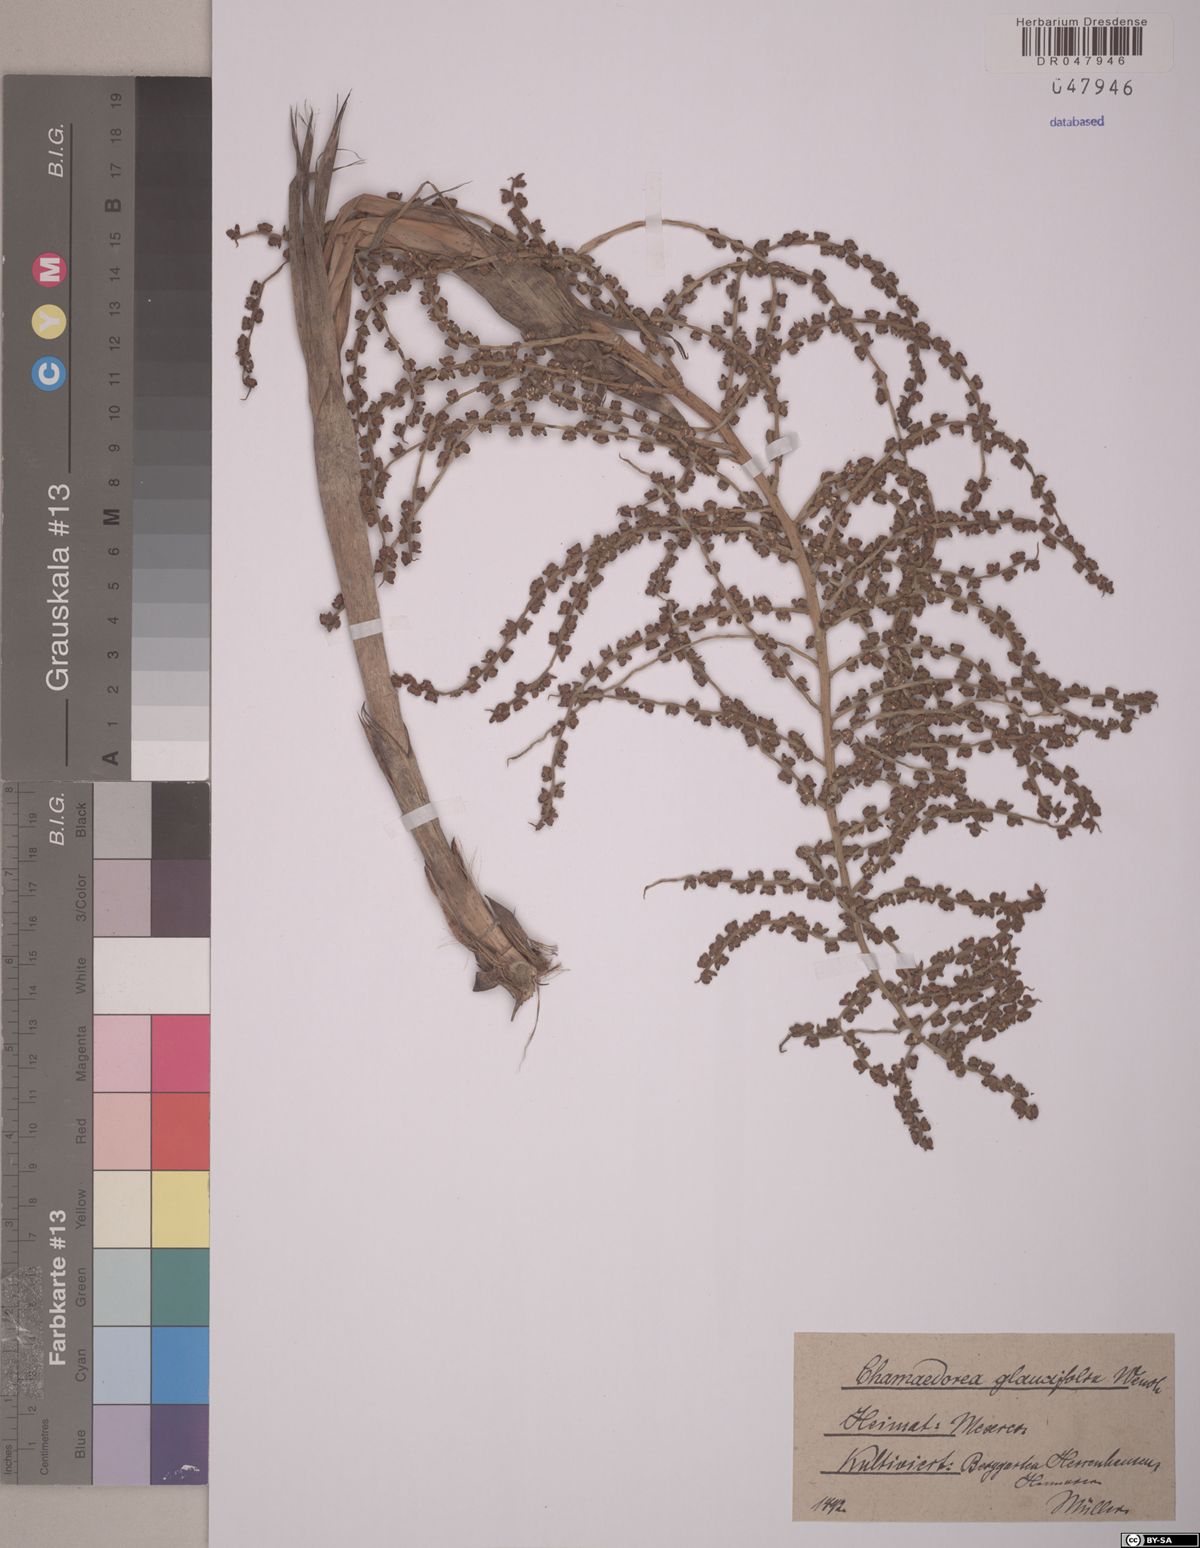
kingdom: Plantae
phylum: Tracheophyta
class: Liliopsida
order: Arecales
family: Arecaceae
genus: Chamaedorea
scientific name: Chamaedorea glaucifolia
